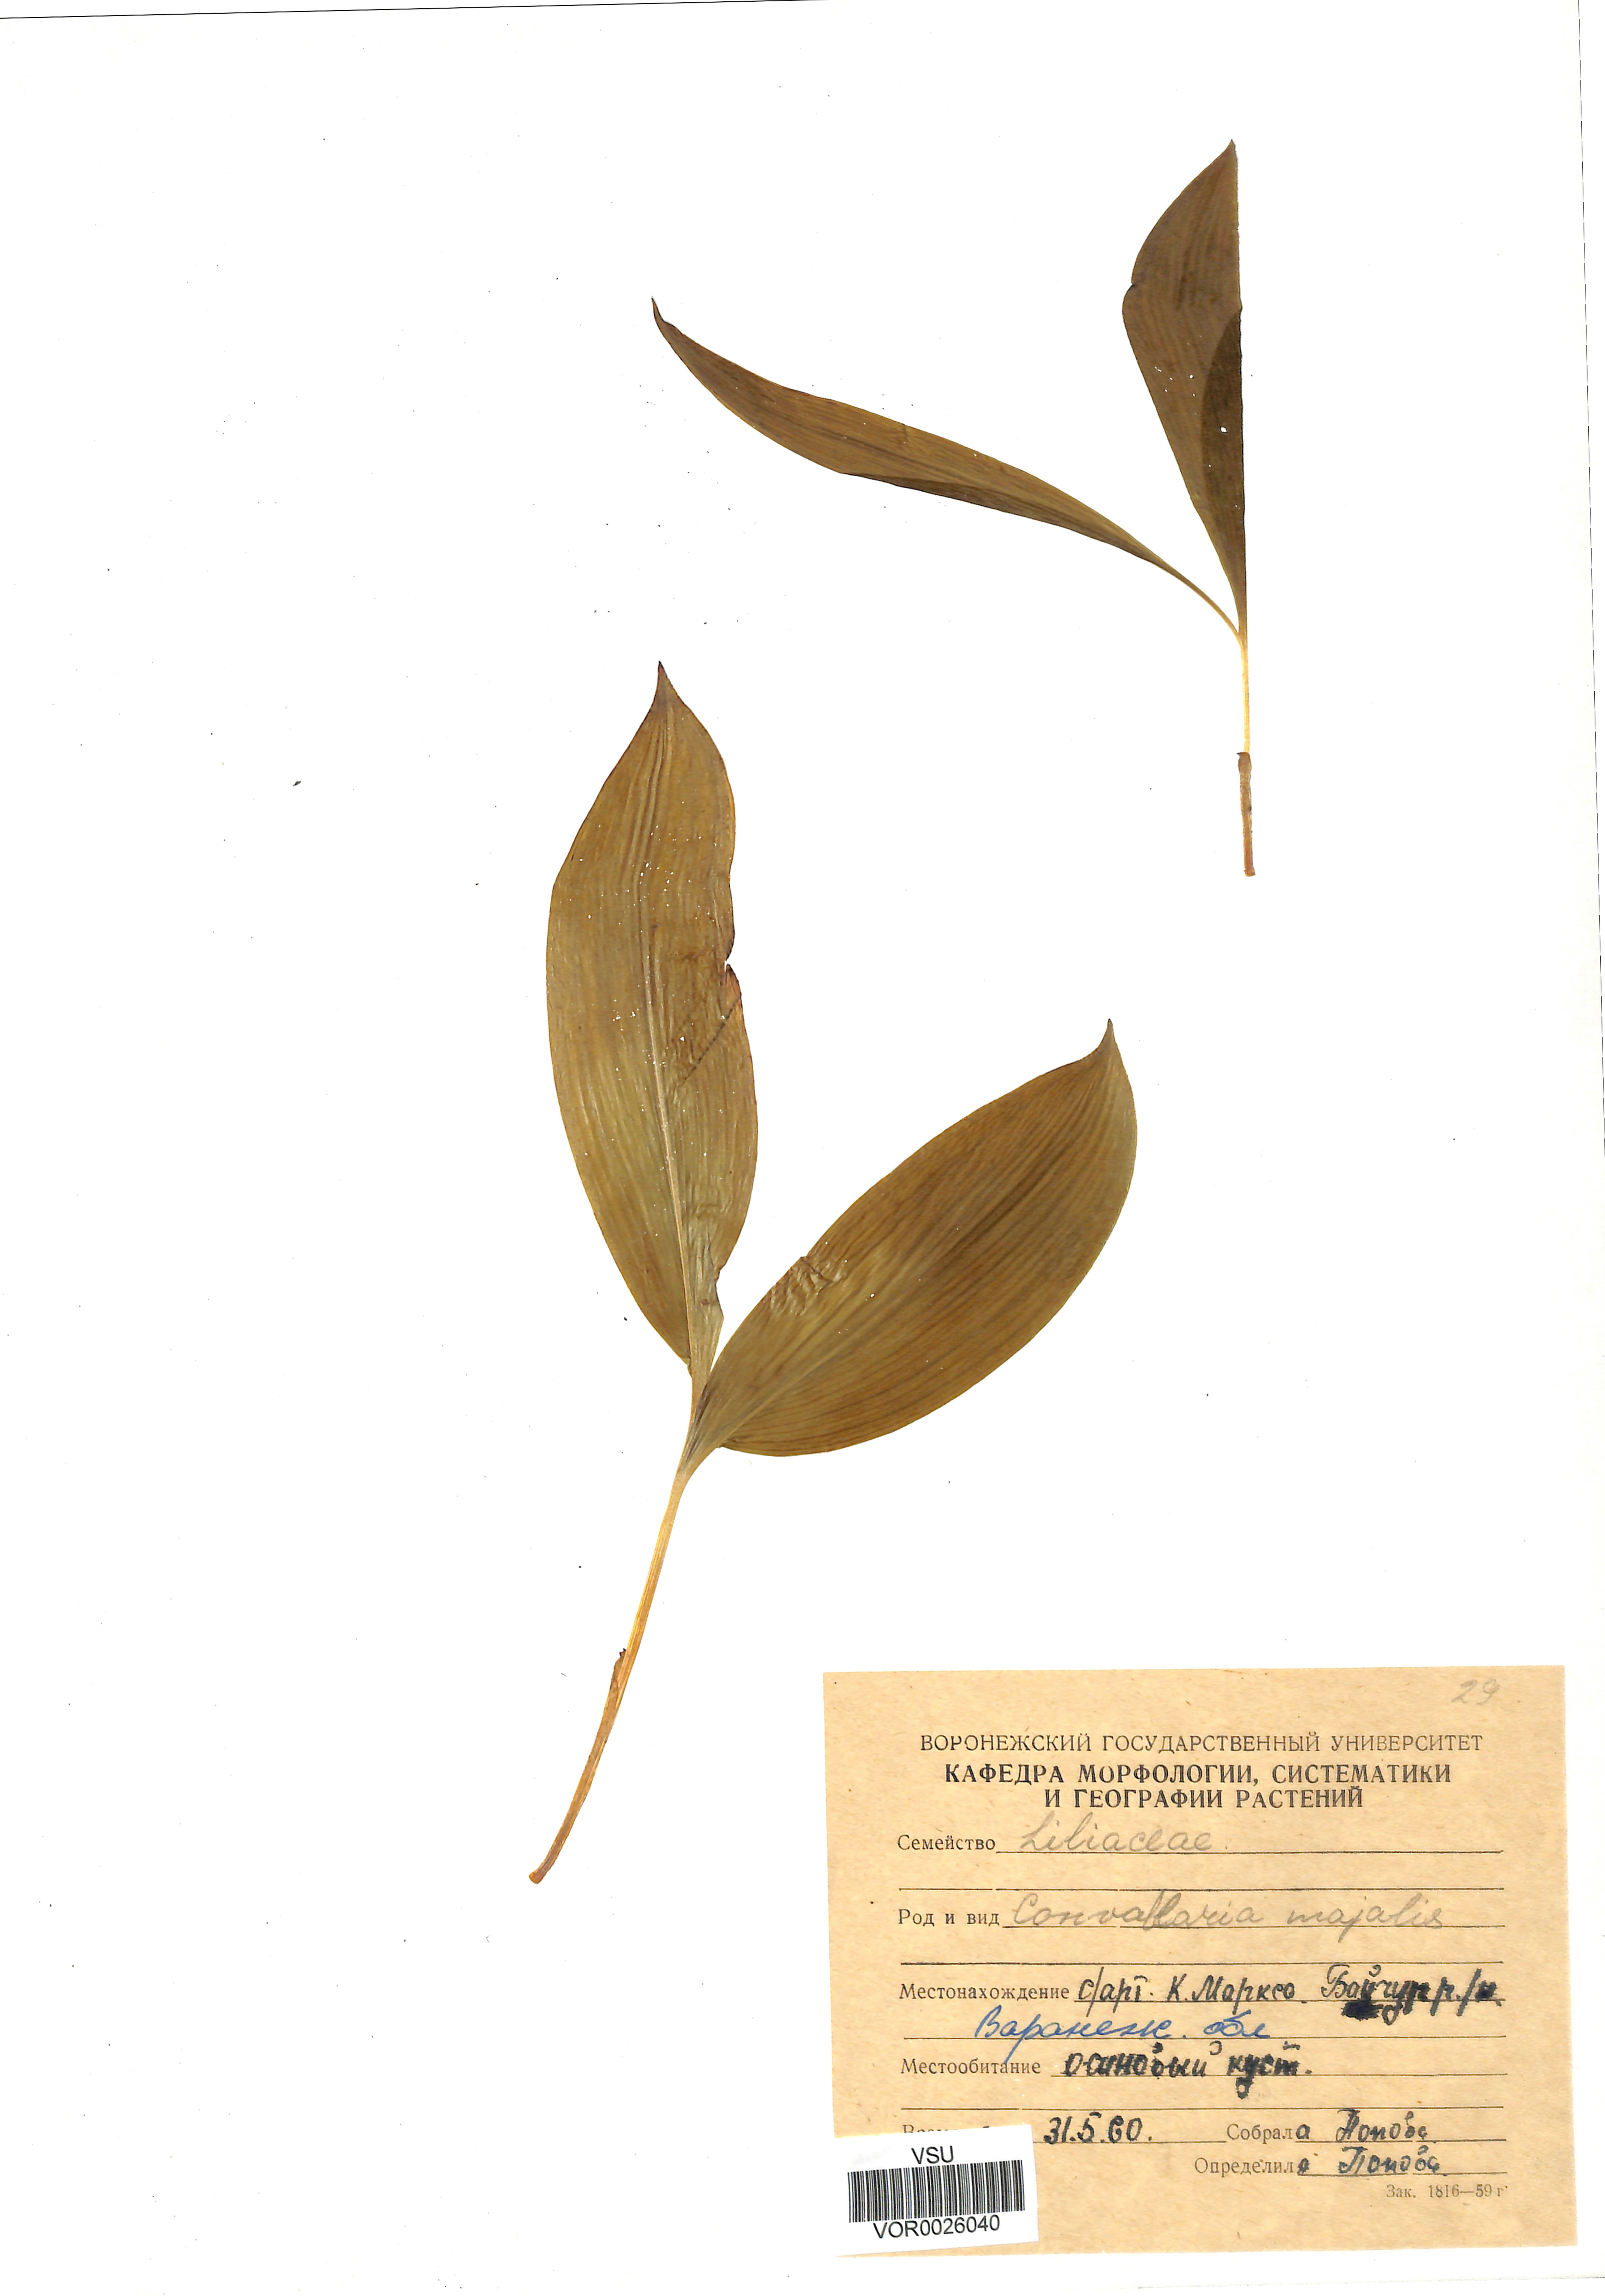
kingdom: Plantae
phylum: Tracheophyta
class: Liliopsida
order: Asparagales
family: Asparagaceae
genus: Convallaria
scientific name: Convallaria majalis
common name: Lily-of-the-valley
